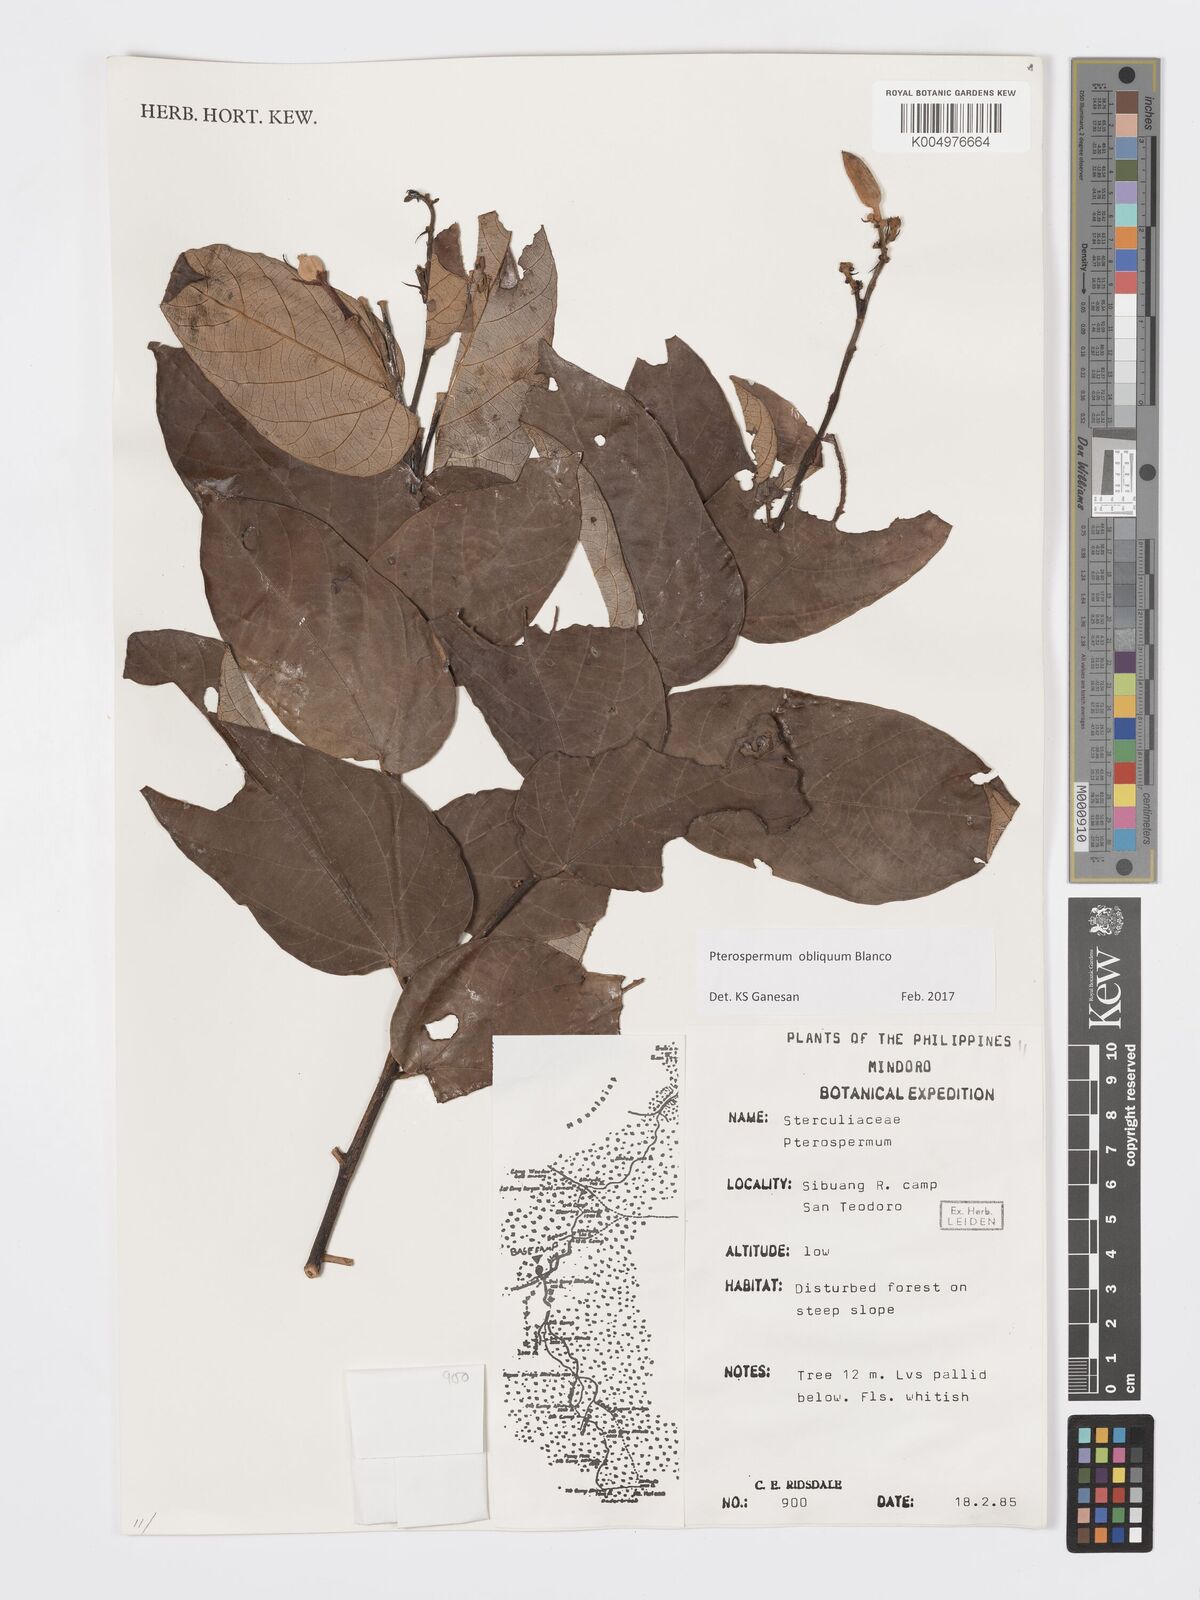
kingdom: Plantae
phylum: Tracheophyta
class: Magnoliopsida
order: Malvales
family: Malvaceae
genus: Pterospermum
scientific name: Pterospermum obliquum
